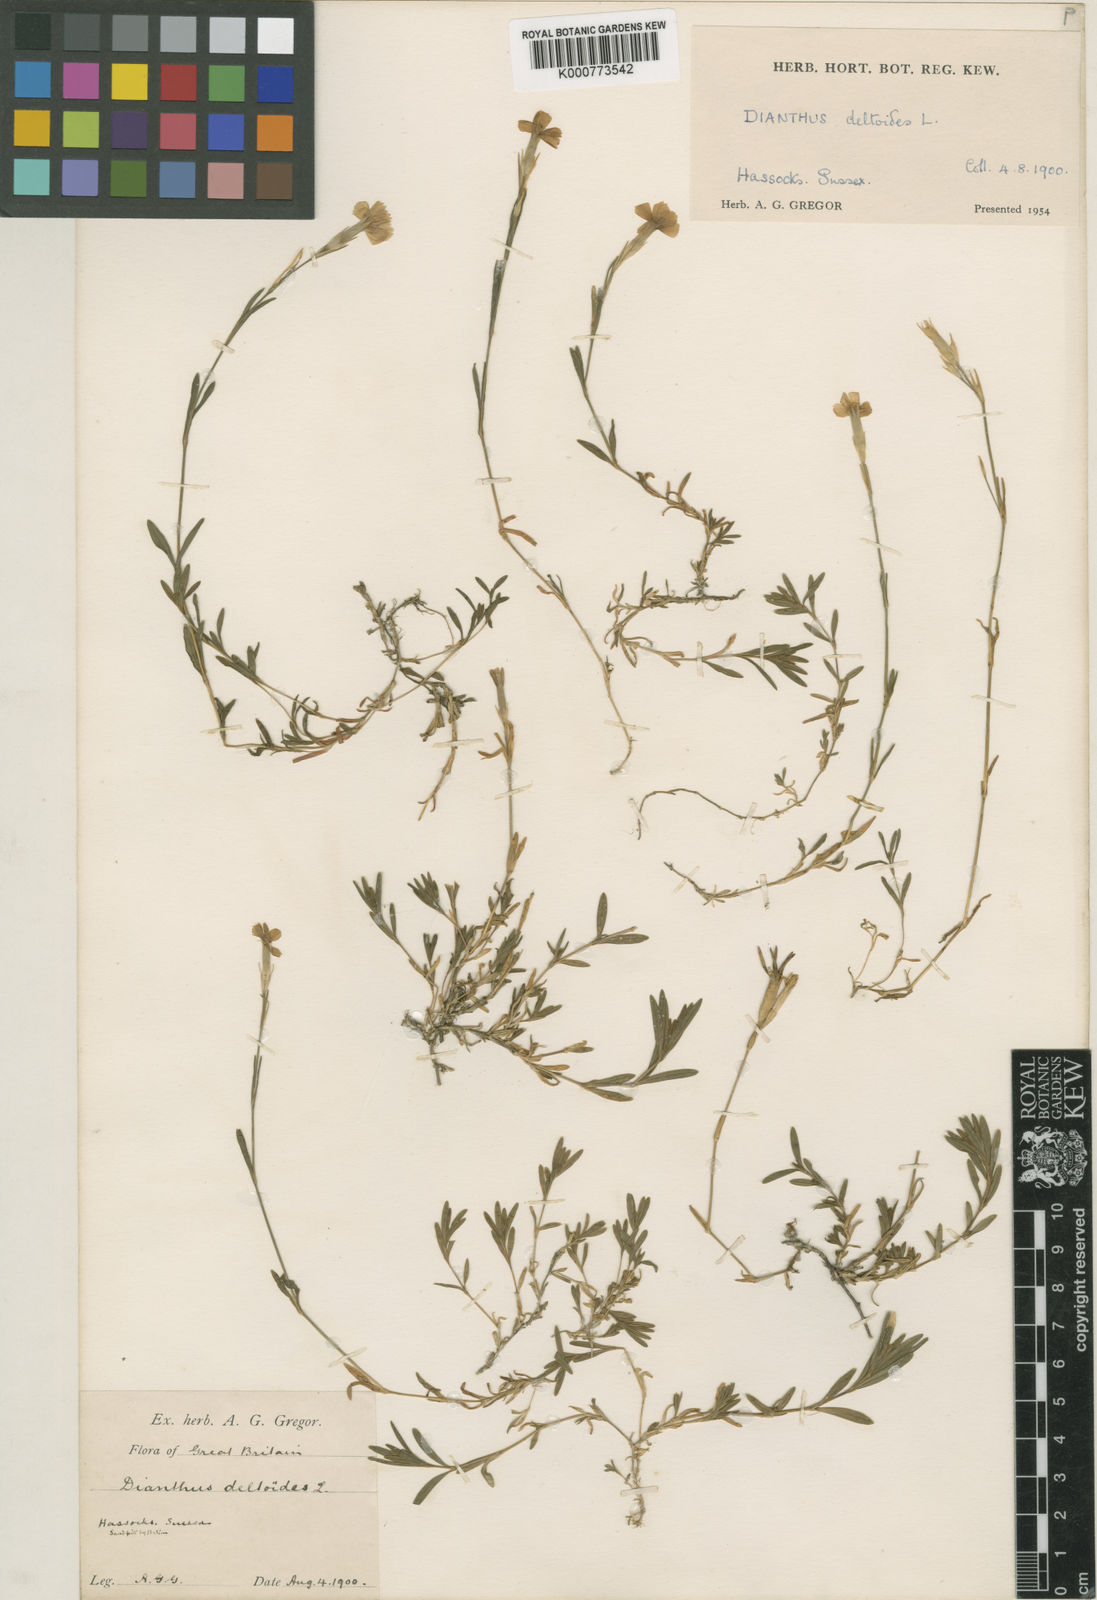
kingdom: Plantae
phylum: Tracheophyta
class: Magnoliopsida
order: Caryophyllales
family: Caryophyllaceae
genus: Dianthus
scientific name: Dianthus deltoides
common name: Maiden pink
